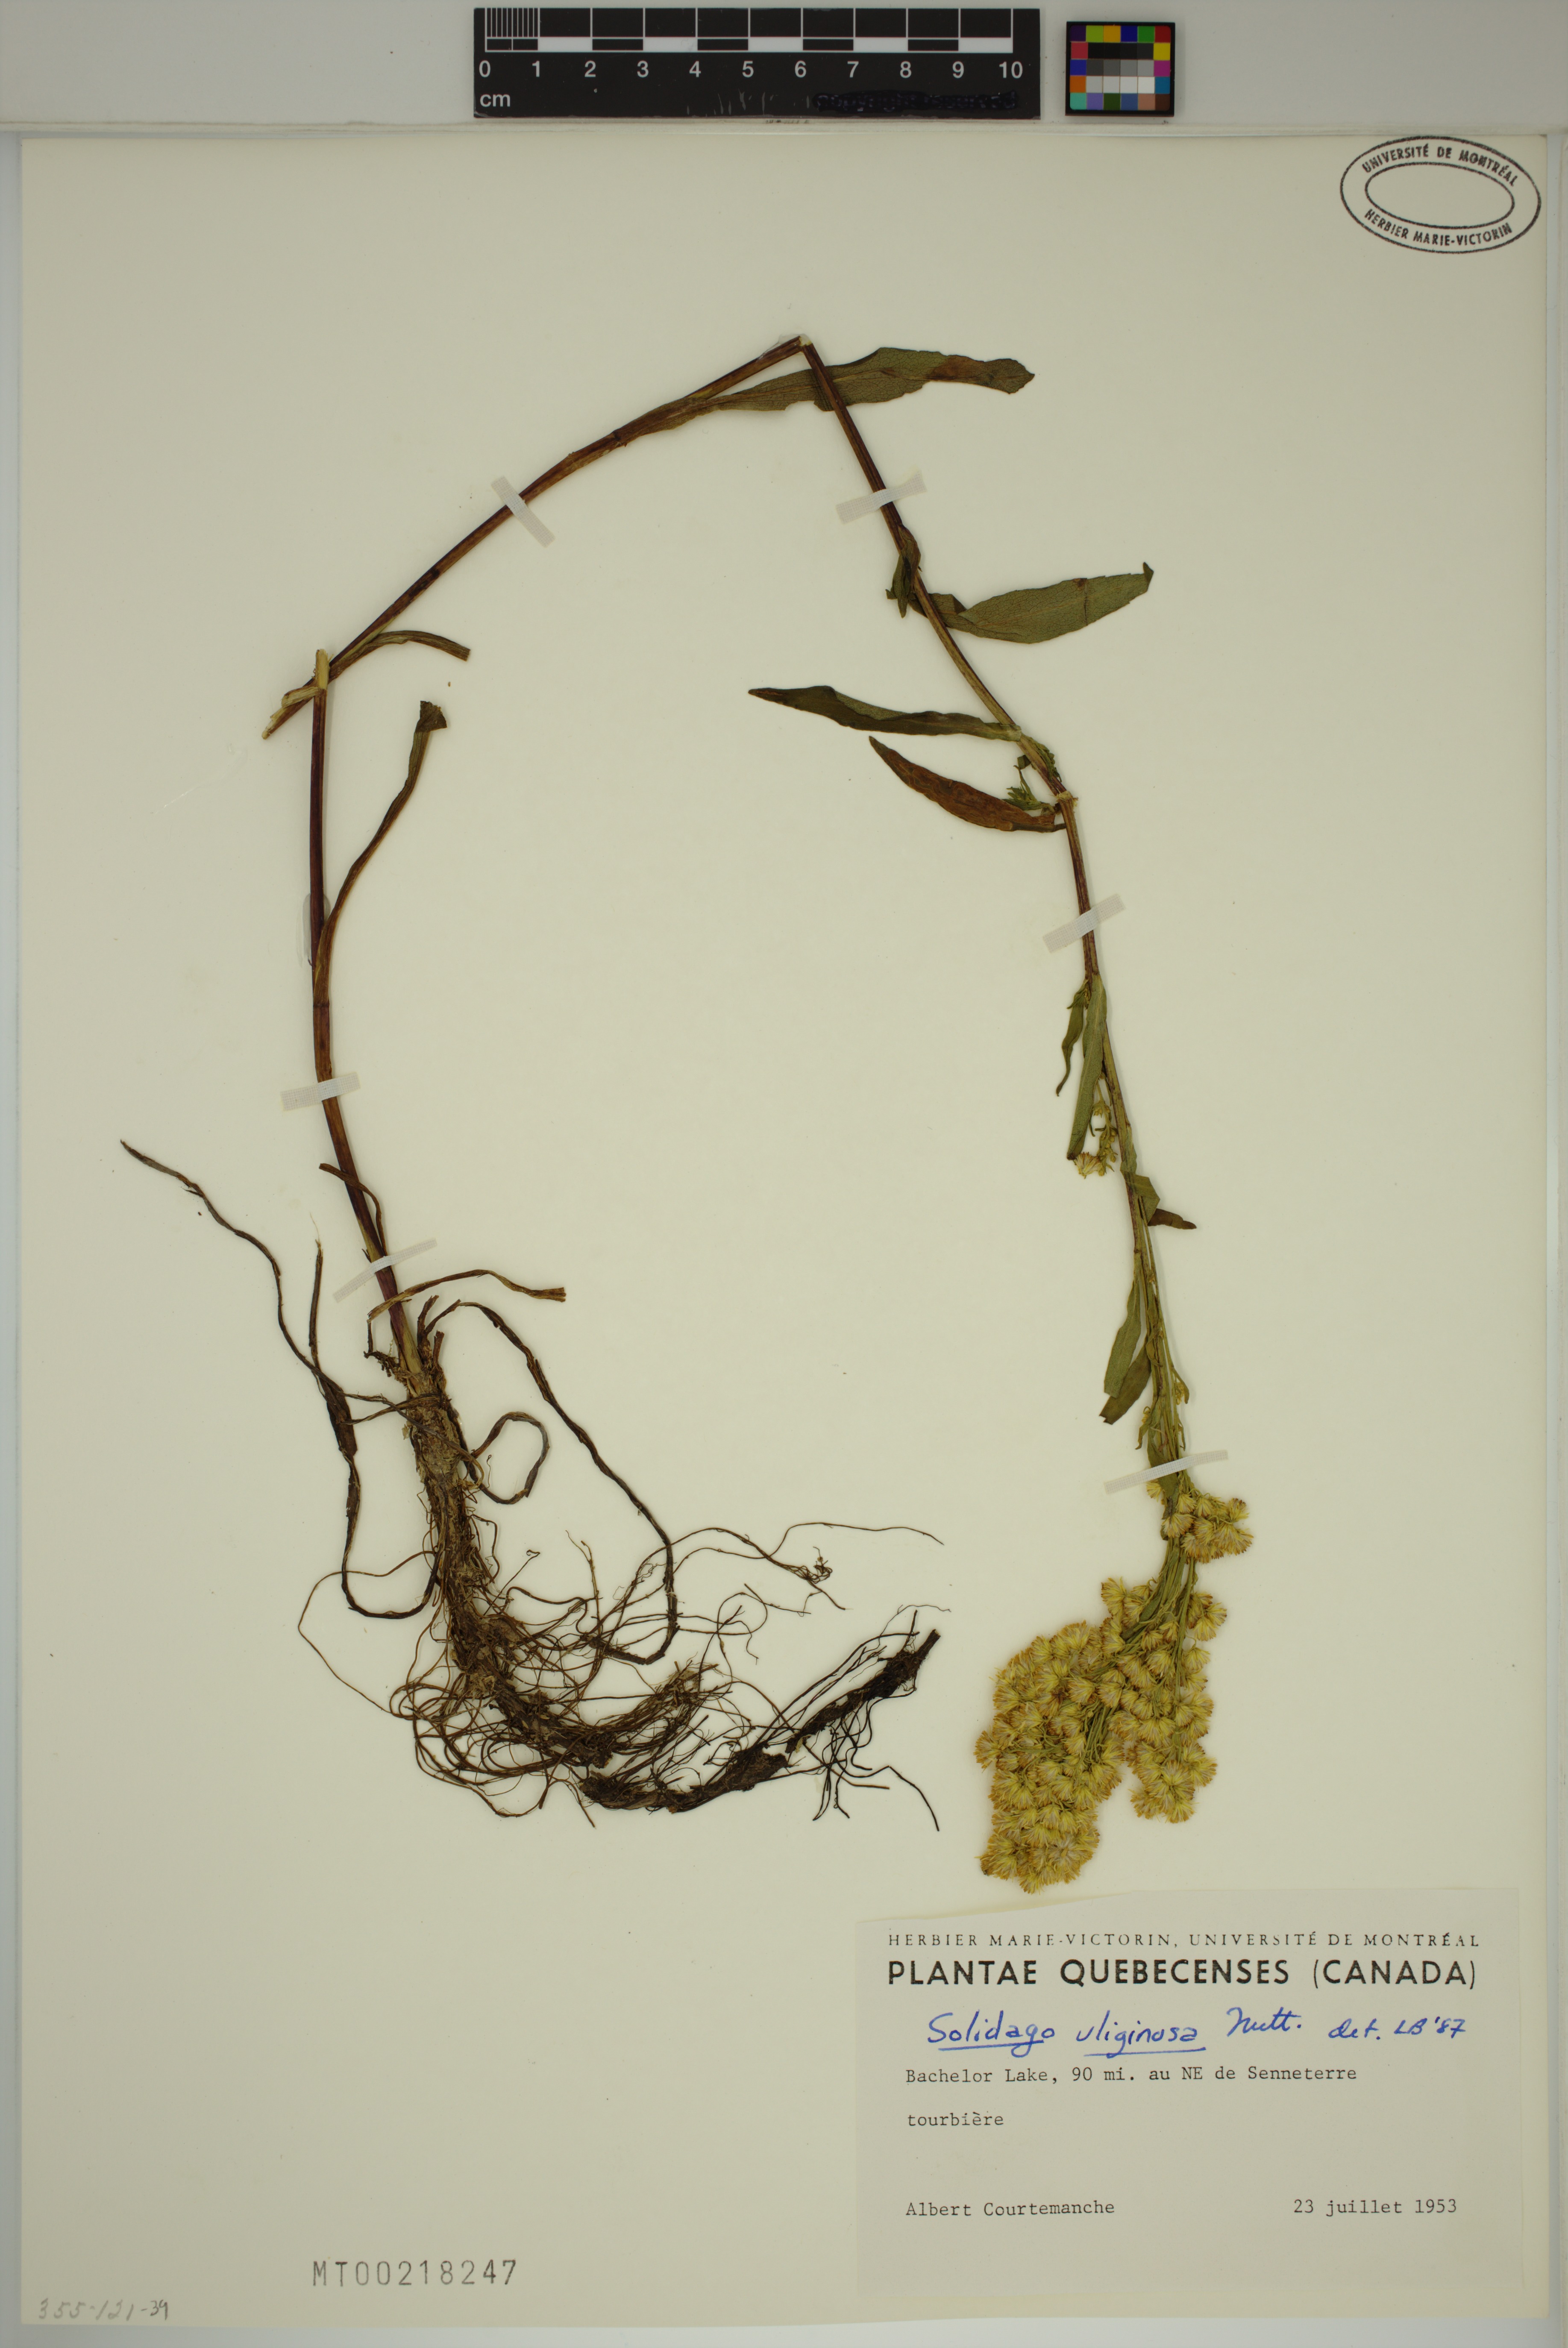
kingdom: Plantae
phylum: Tracheophyta
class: Magnoliopsida
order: Asterales
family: Asteraceae
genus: Solidago
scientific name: Solidago uliginosa
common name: Bog goldenrod
